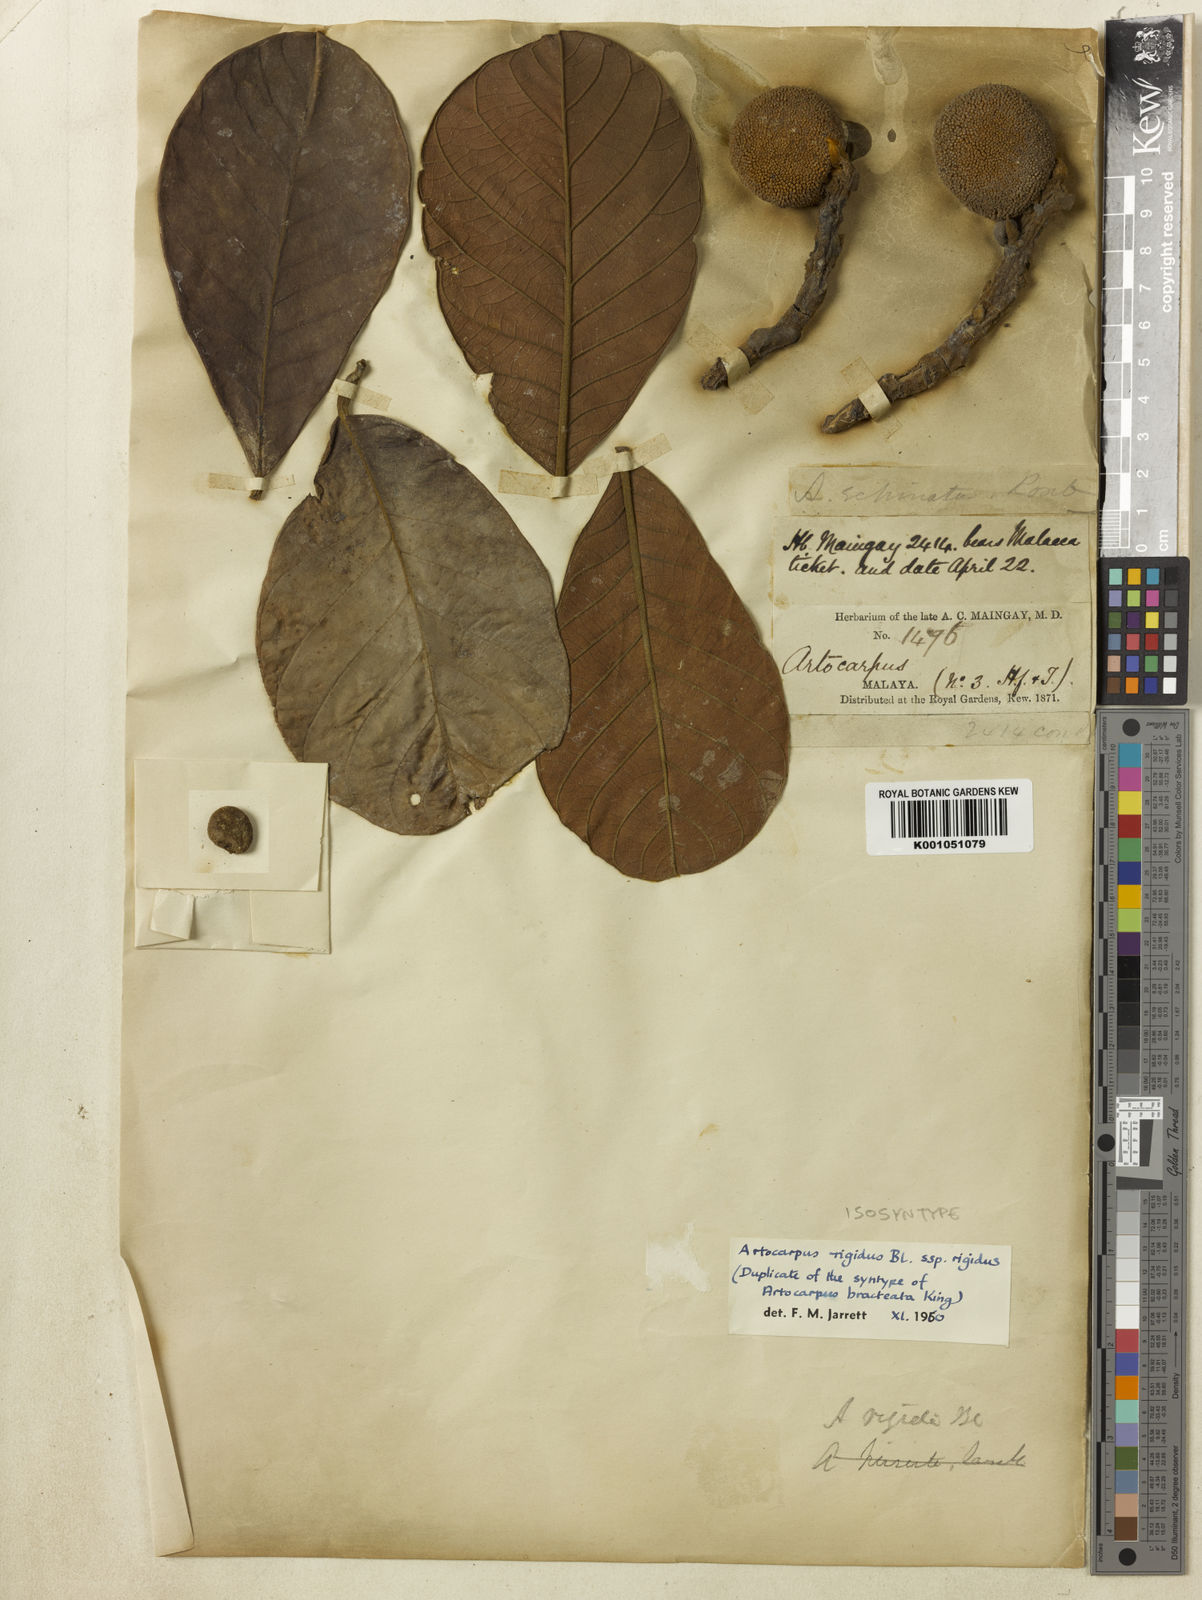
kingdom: Plantae
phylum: Tracheophyta
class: Magnoliopsida
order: Rosales
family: Moraceae
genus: Artocarpus
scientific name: Artocarpus rigidus
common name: Monkey-jack
